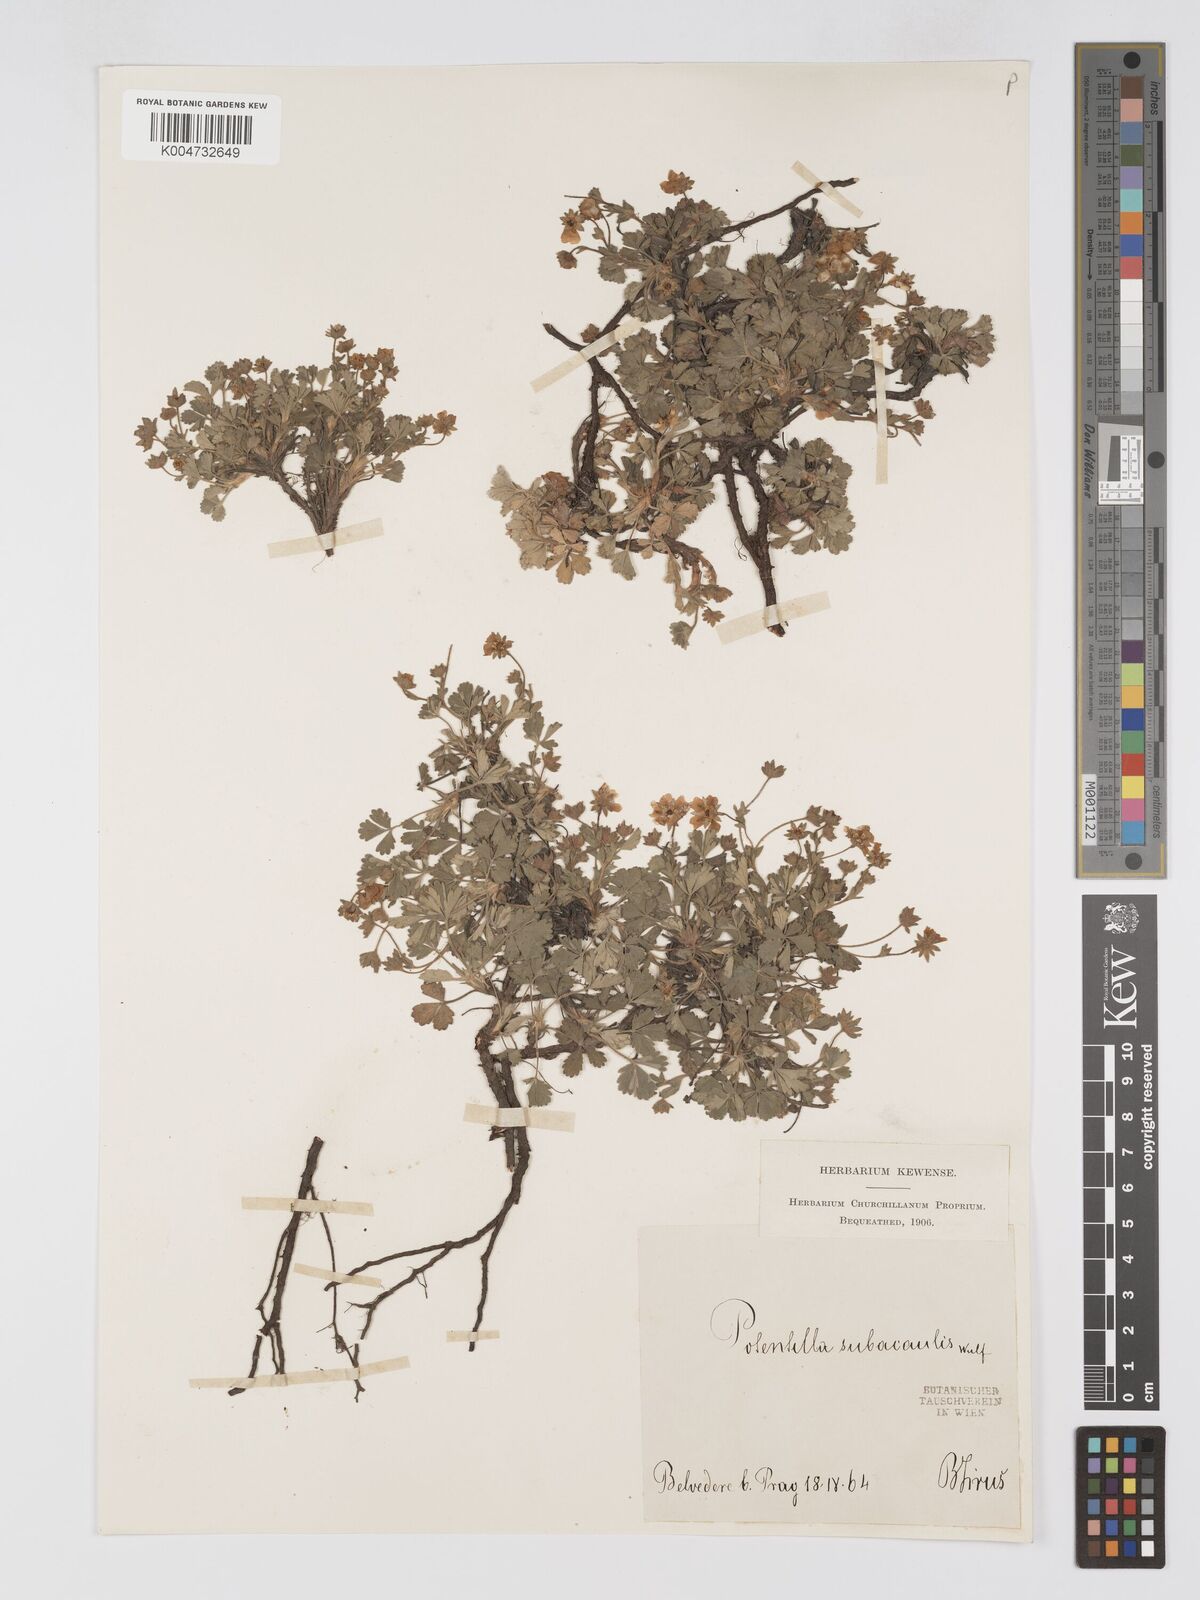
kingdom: Plantae
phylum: Tracheophyta
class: Magnoliopsida
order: Rosales
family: Rosaceae
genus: Potentilla
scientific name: Potentilla cinerea
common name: Ashy cinquefoil
